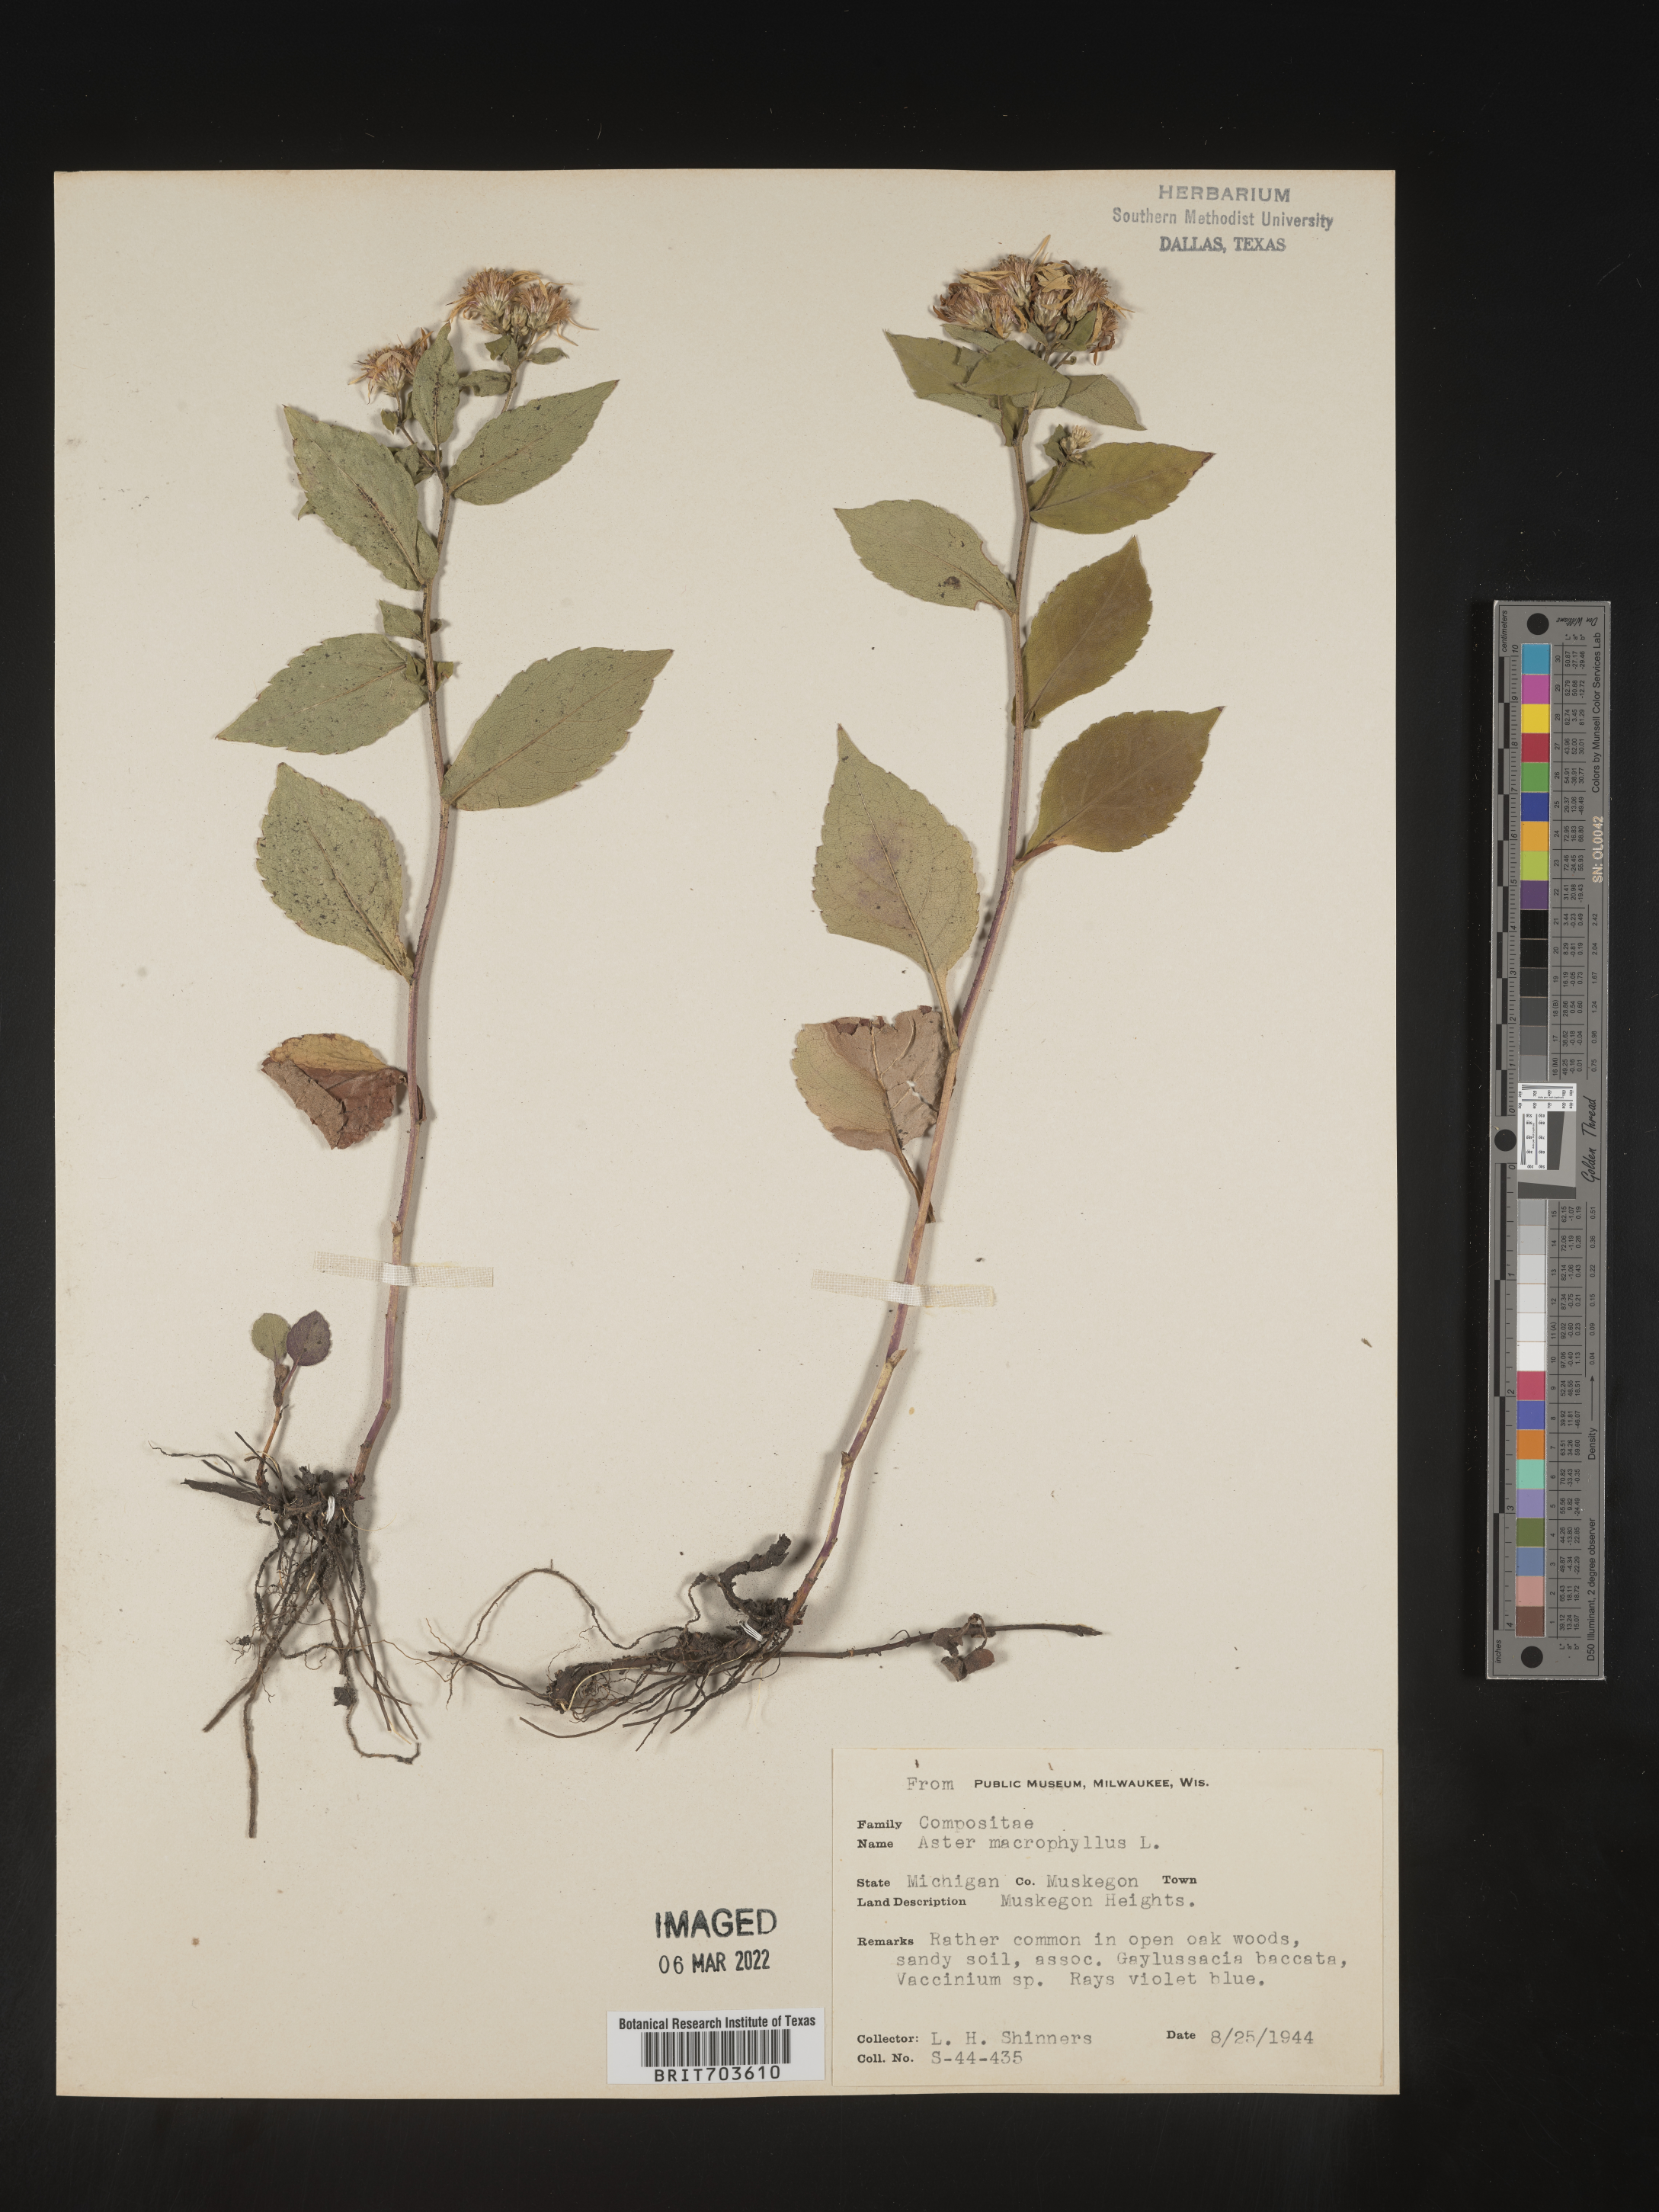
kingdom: Plantae
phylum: Tracheophyta
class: Magnoliopsida
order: Asterales
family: Asteraceae
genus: Eurybia
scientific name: Eurybia macrophylla
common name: Big-leaved aster
